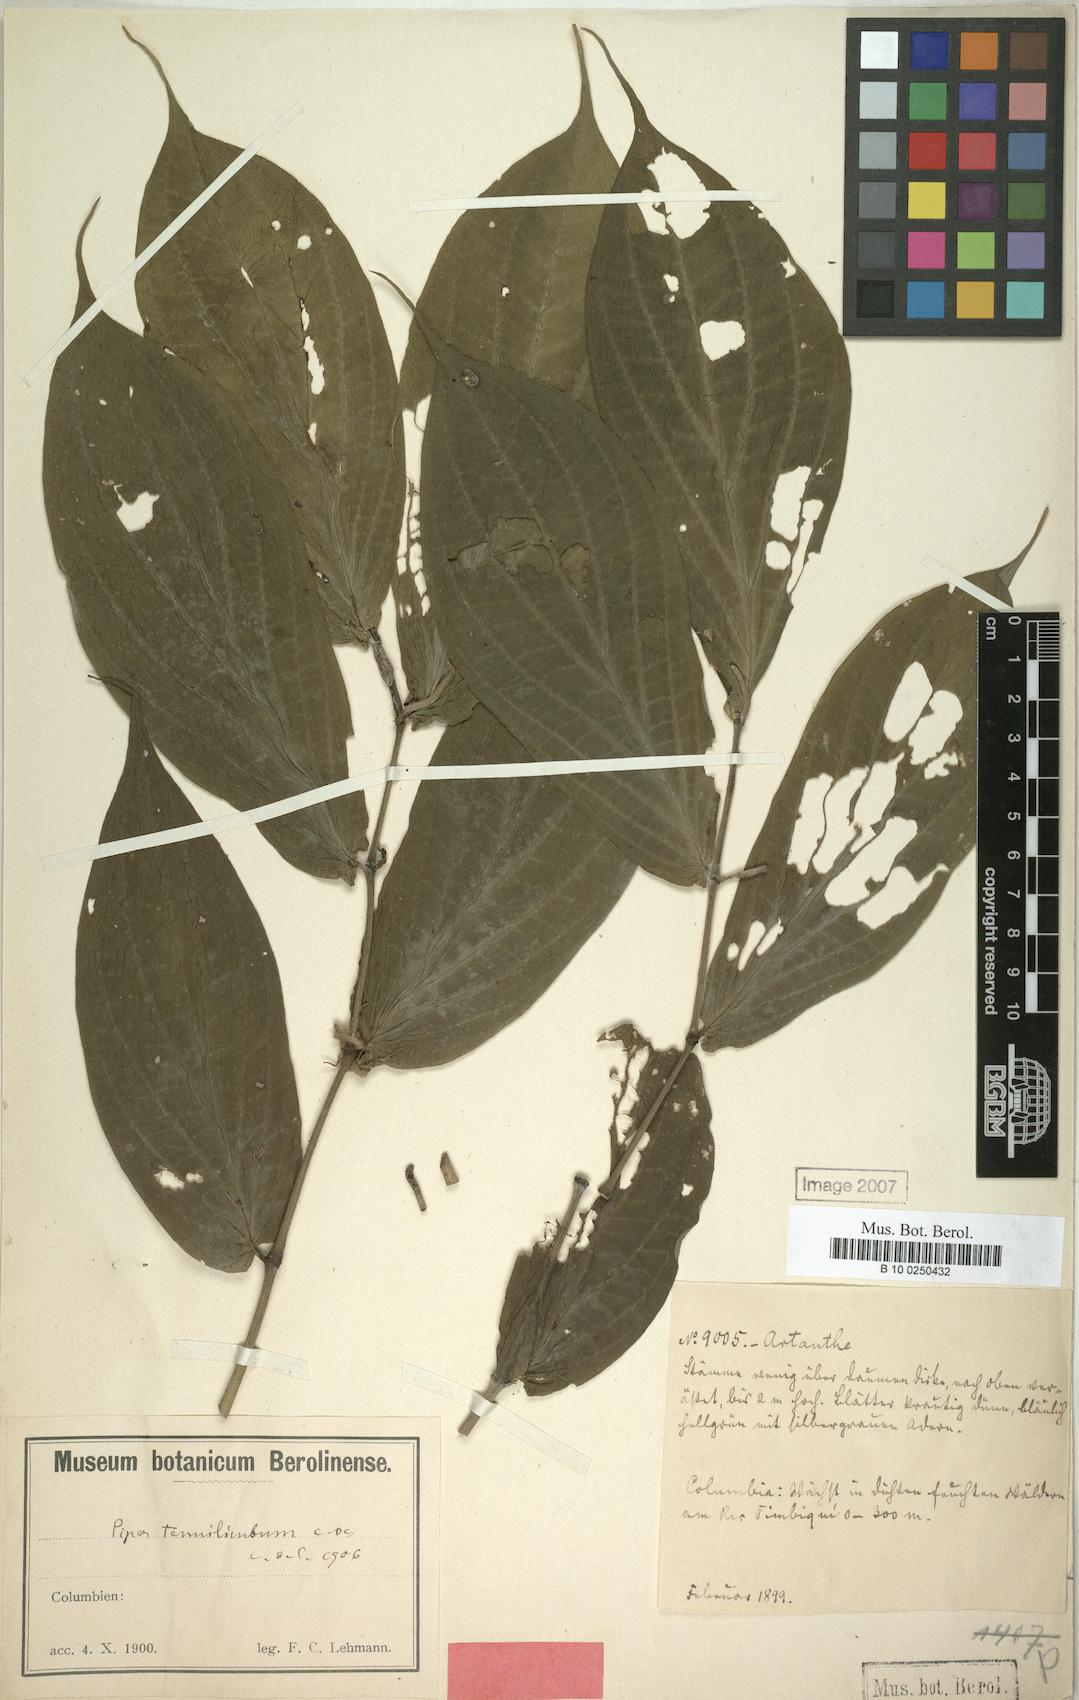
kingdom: Plantae
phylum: Tracheophyta
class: Magnoliopsida
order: Piperales
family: Piperaceae
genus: Piper
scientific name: Piper tenuilimbum
